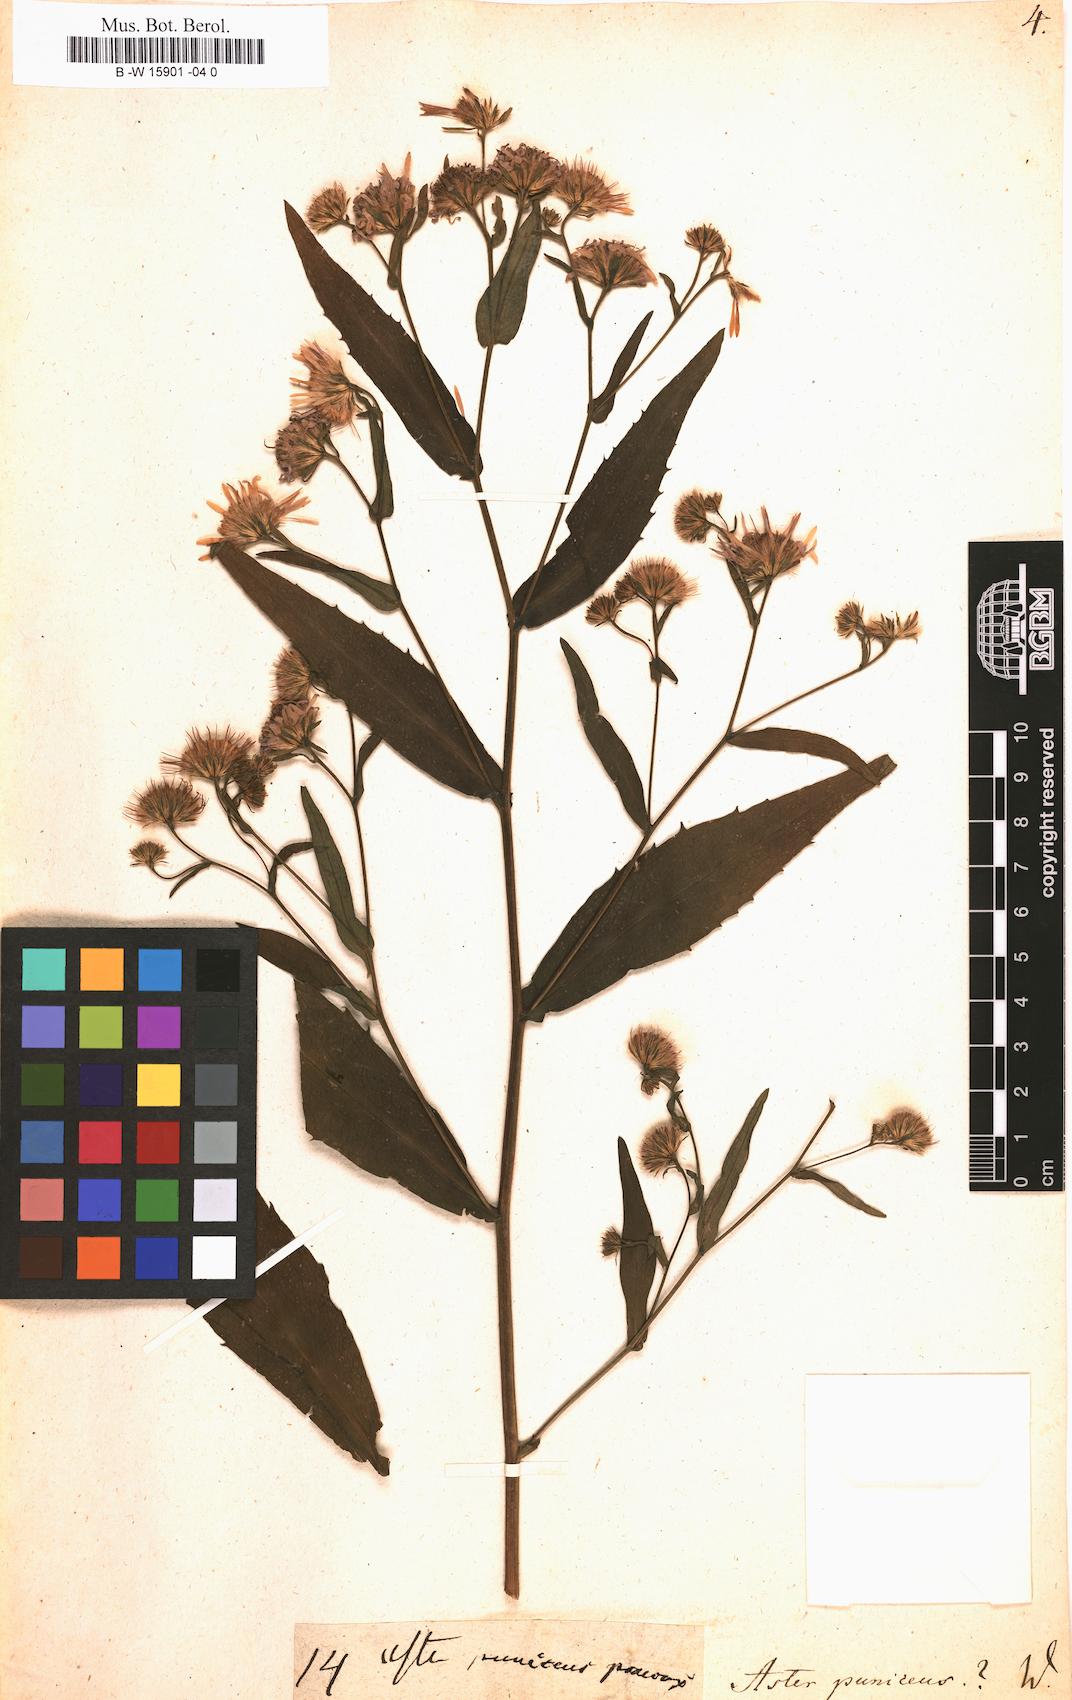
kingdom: Plantae
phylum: Tracheophyta
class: Magnoliopsida
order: Asterales
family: Asteraceae
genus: Symphyotrichum
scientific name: Symphyotrichum puniceum
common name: Bog aster
